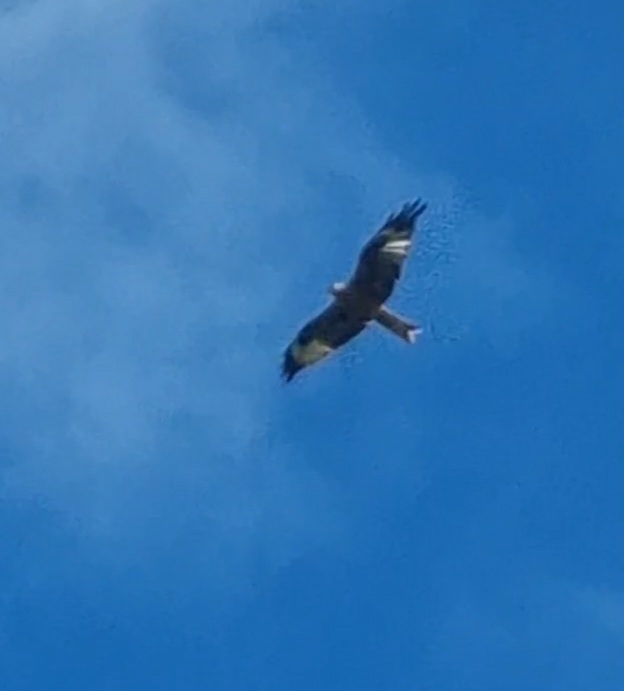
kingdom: Animalia
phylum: Chordata
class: Aves
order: Accipitriformes
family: Accipitridae
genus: Milvus
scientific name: Milvus milvus
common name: Rød glente
